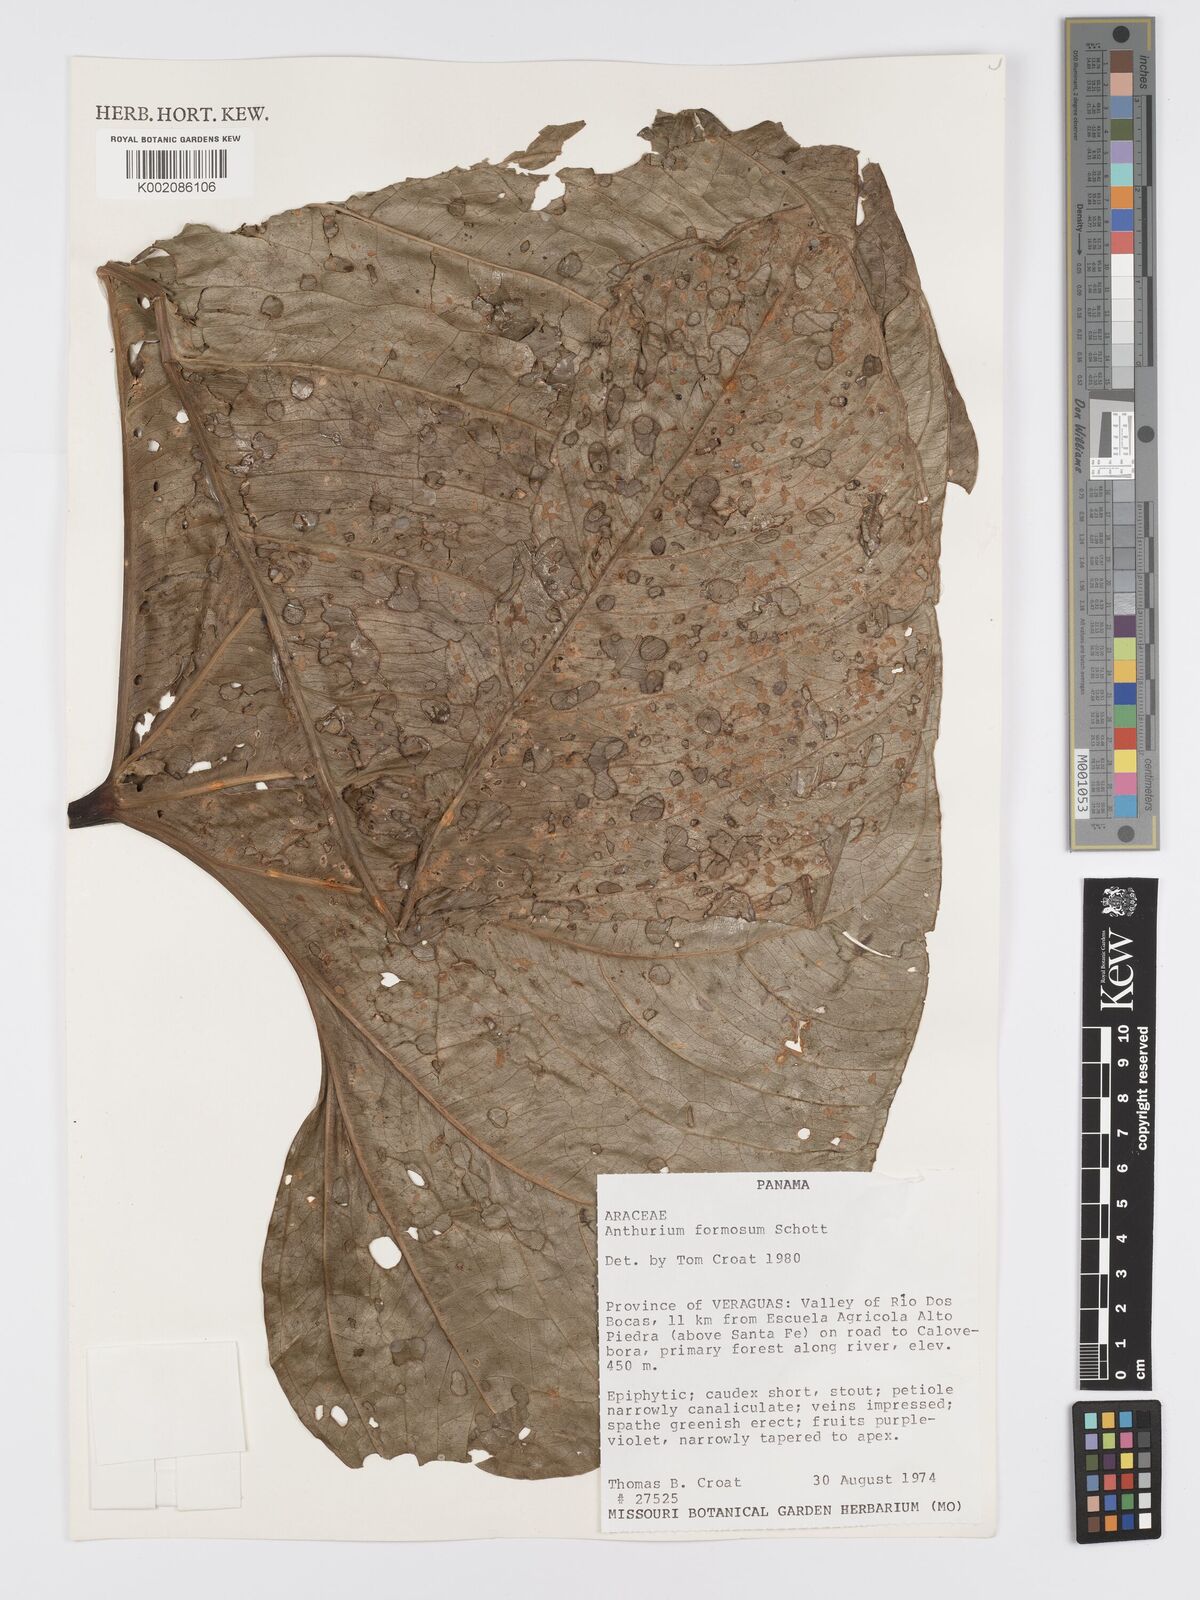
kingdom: Plantae
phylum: Tracheophyta
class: Liliopsida
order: Alismatales
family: Araceae
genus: Anthurium
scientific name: Anthurium formosum
